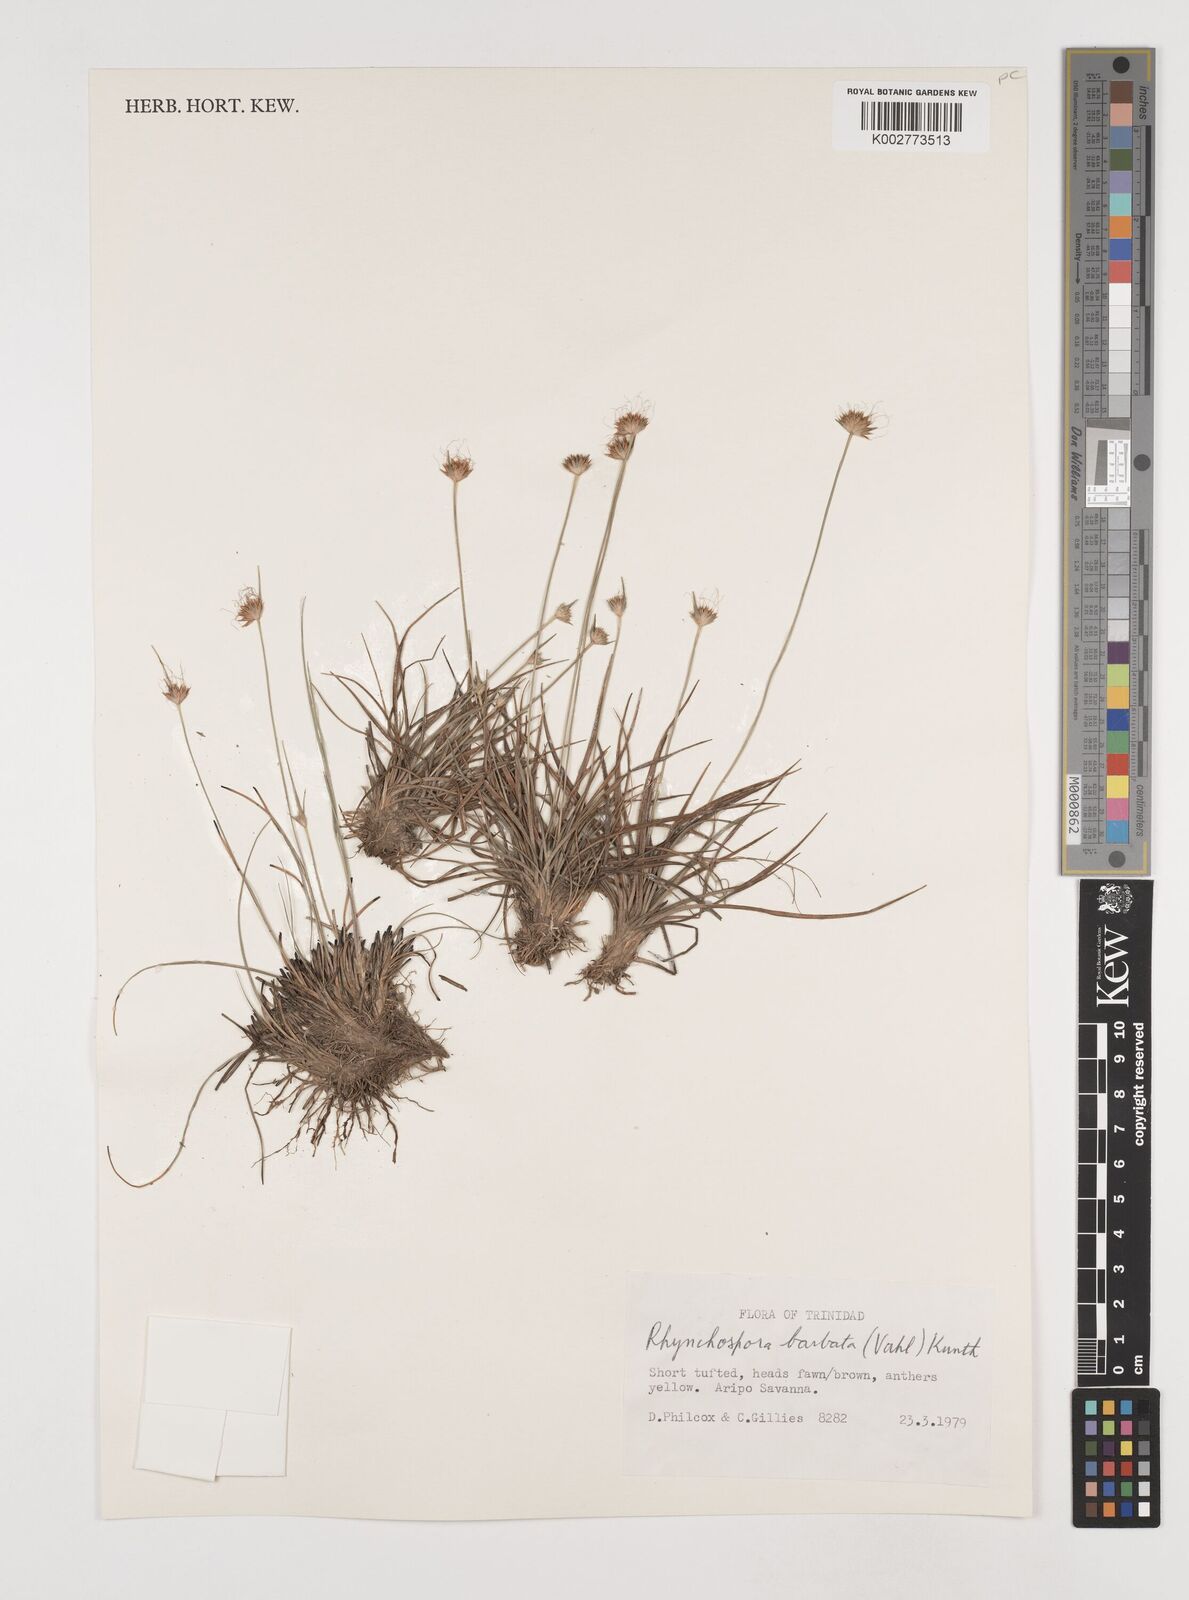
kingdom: Plantae
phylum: Tracheophyta
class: Liliopsida
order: Poales
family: Cyperaceae
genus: Rhynchospora
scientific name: Rhynchospora barbata
